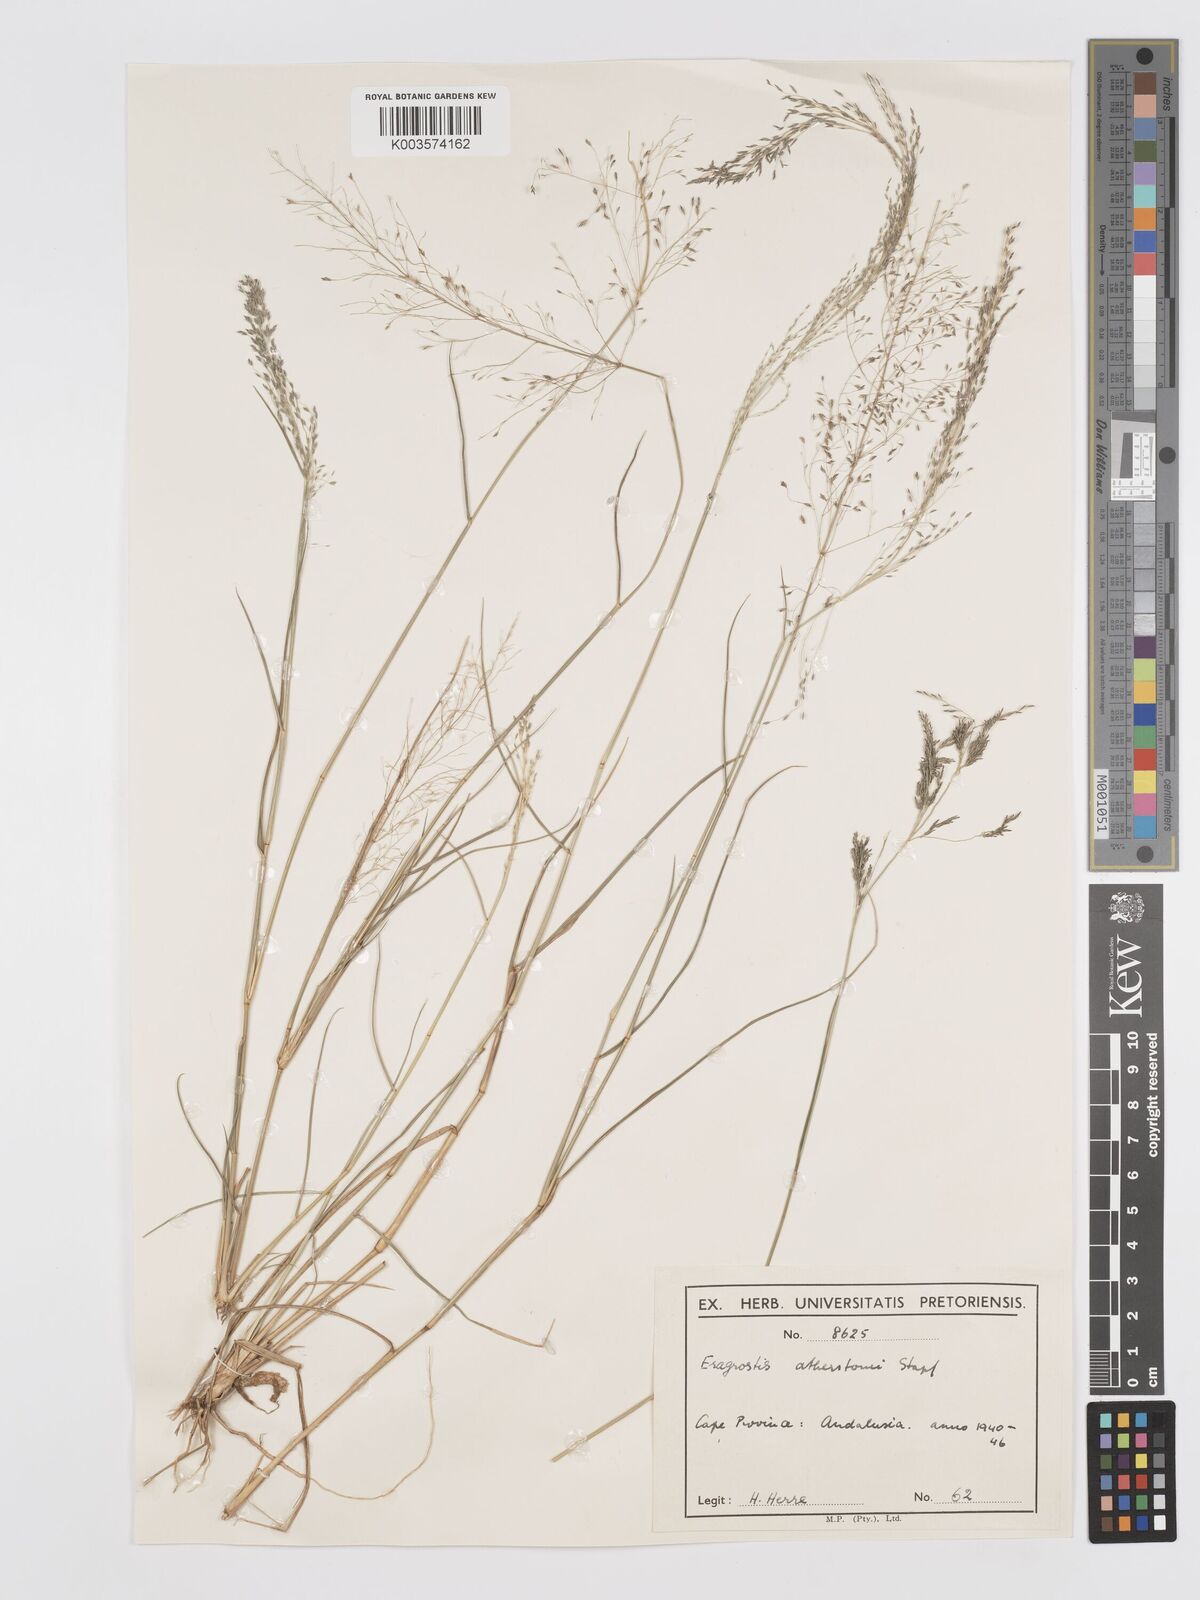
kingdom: Plantae
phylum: Tracheophyta
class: Liliopsida
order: Poales
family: Poaceae
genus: Eragrostis
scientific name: Eragrostis cylindriflora
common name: Cylinderflower lovegrass
